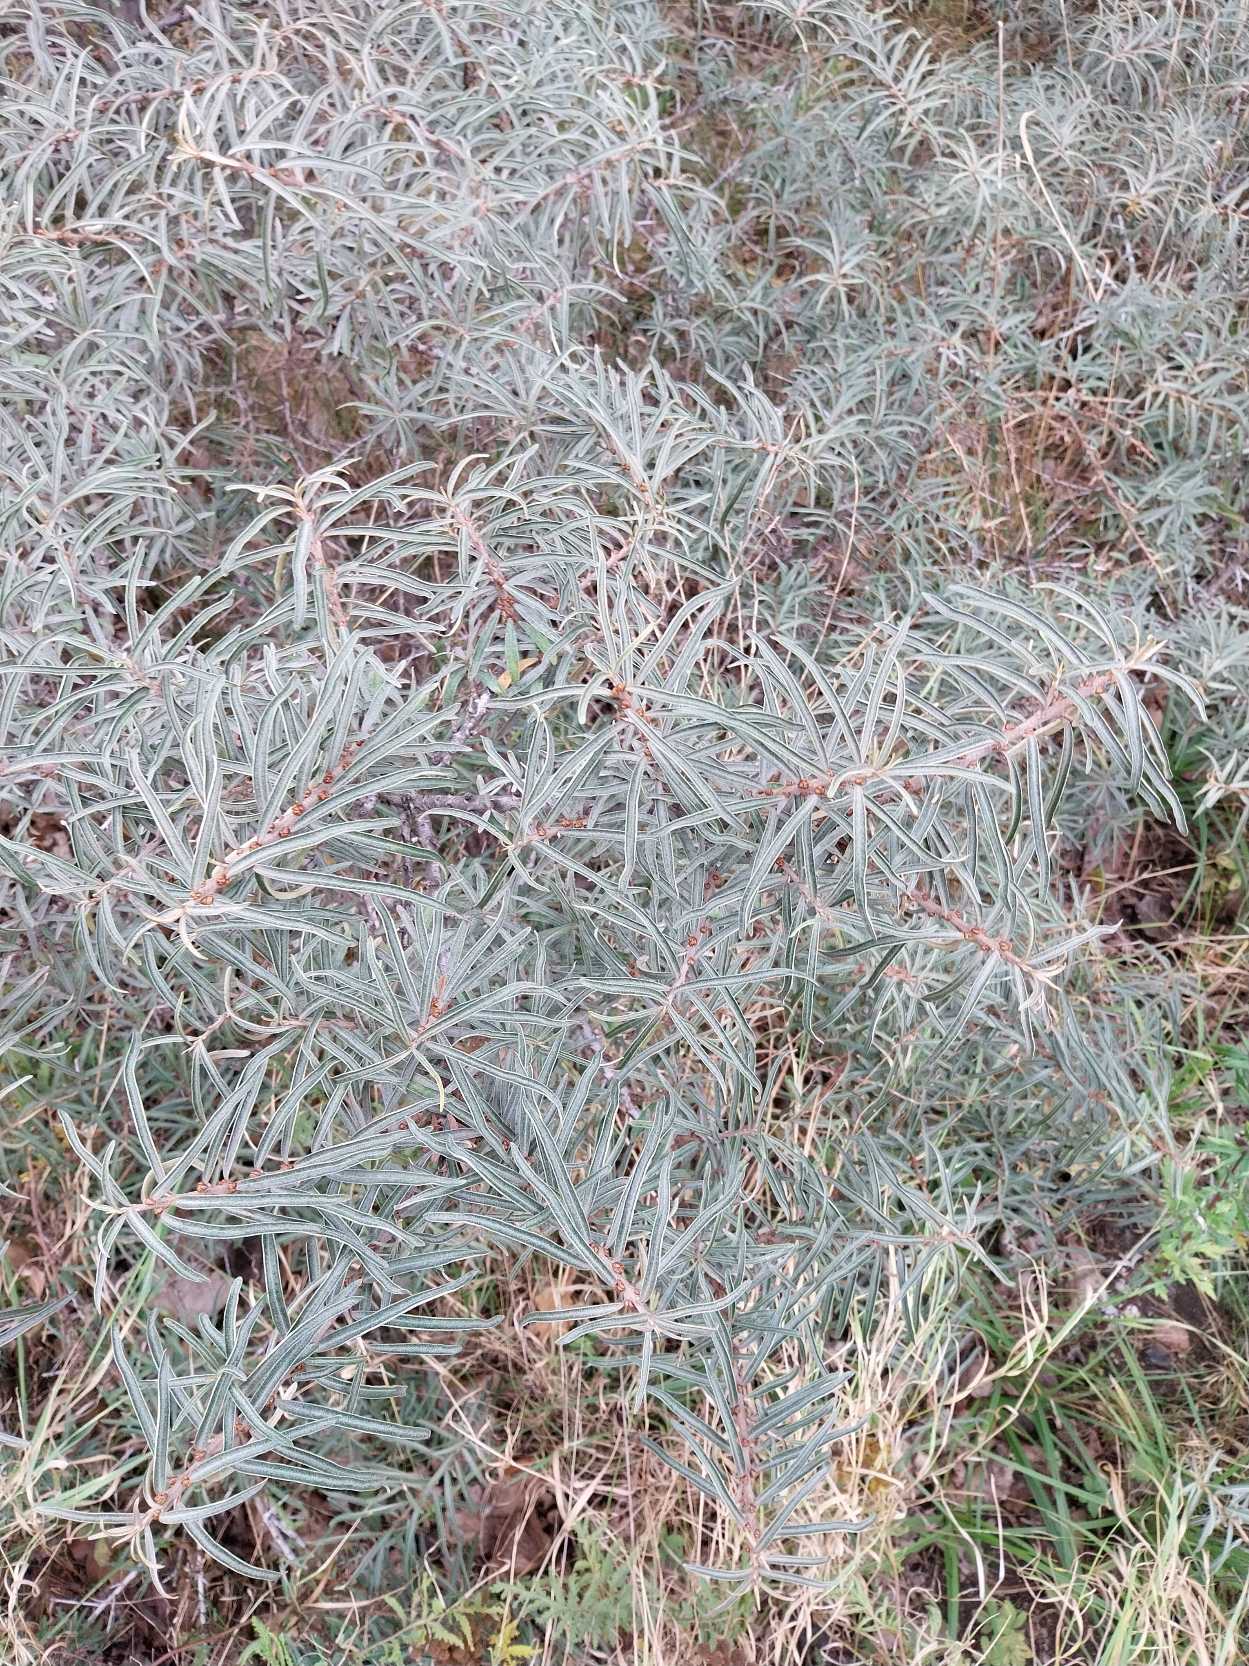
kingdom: Plantae
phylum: Tracheophyta
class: Magnoliopsida
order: Rosales
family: Elaeagnaceae
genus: Hippophae
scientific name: Hippophae rhamnoides
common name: Havtorn
